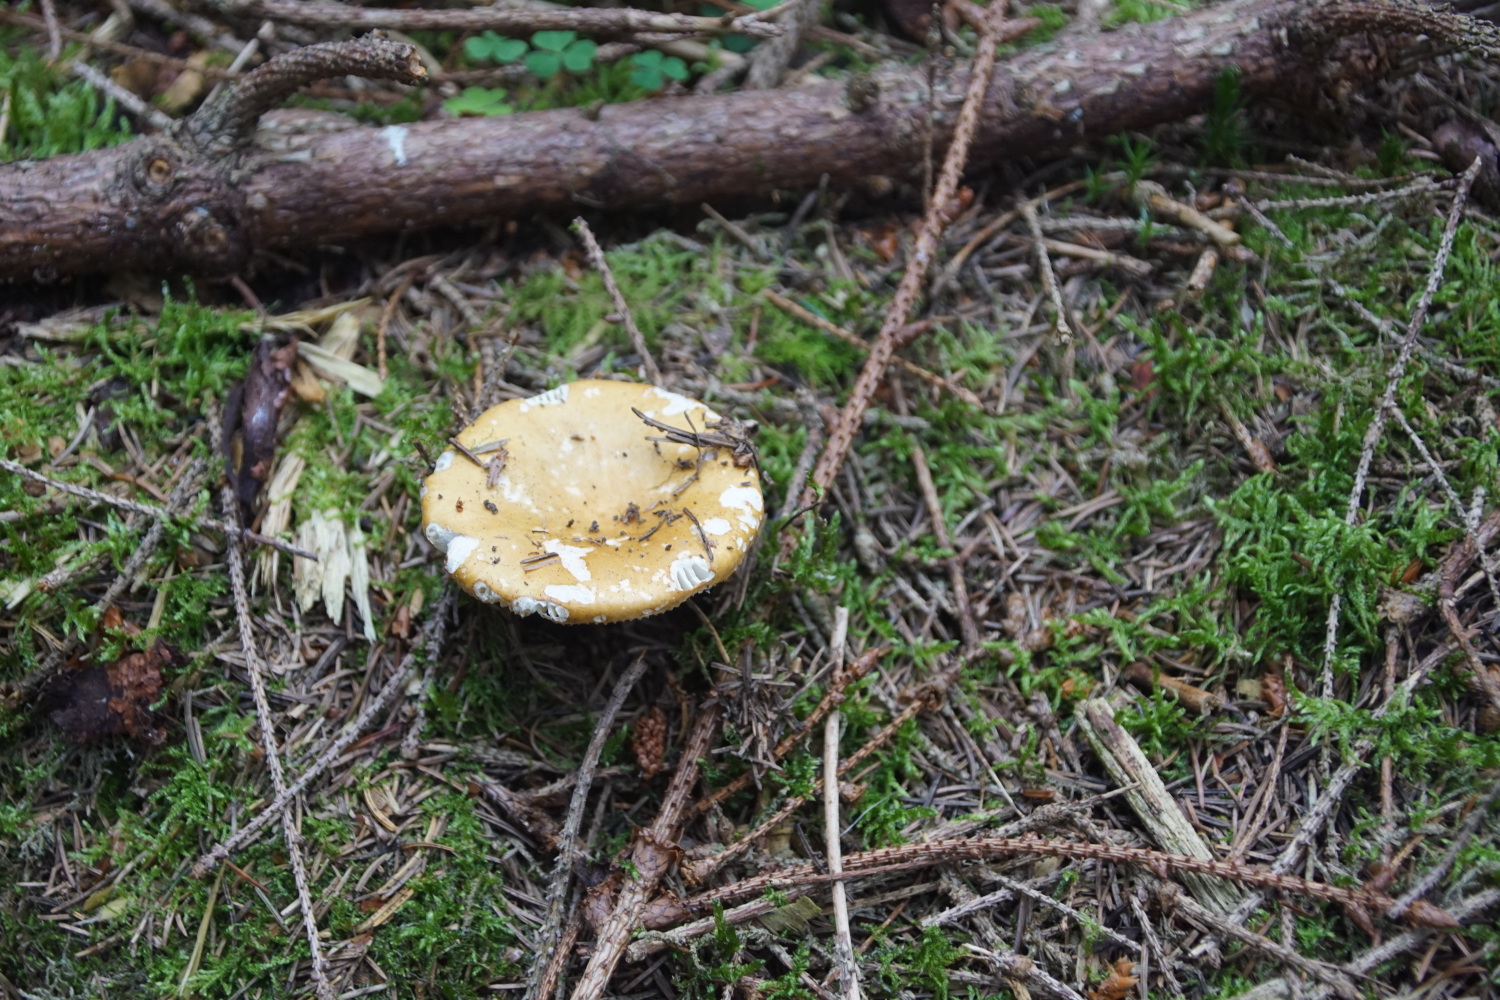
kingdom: Fungi
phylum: Basidiomycota
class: Agaricomycetes
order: Russulales
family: Russulaceae
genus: Russula
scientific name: Russula ochroleuca
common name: okkergul skørhat
